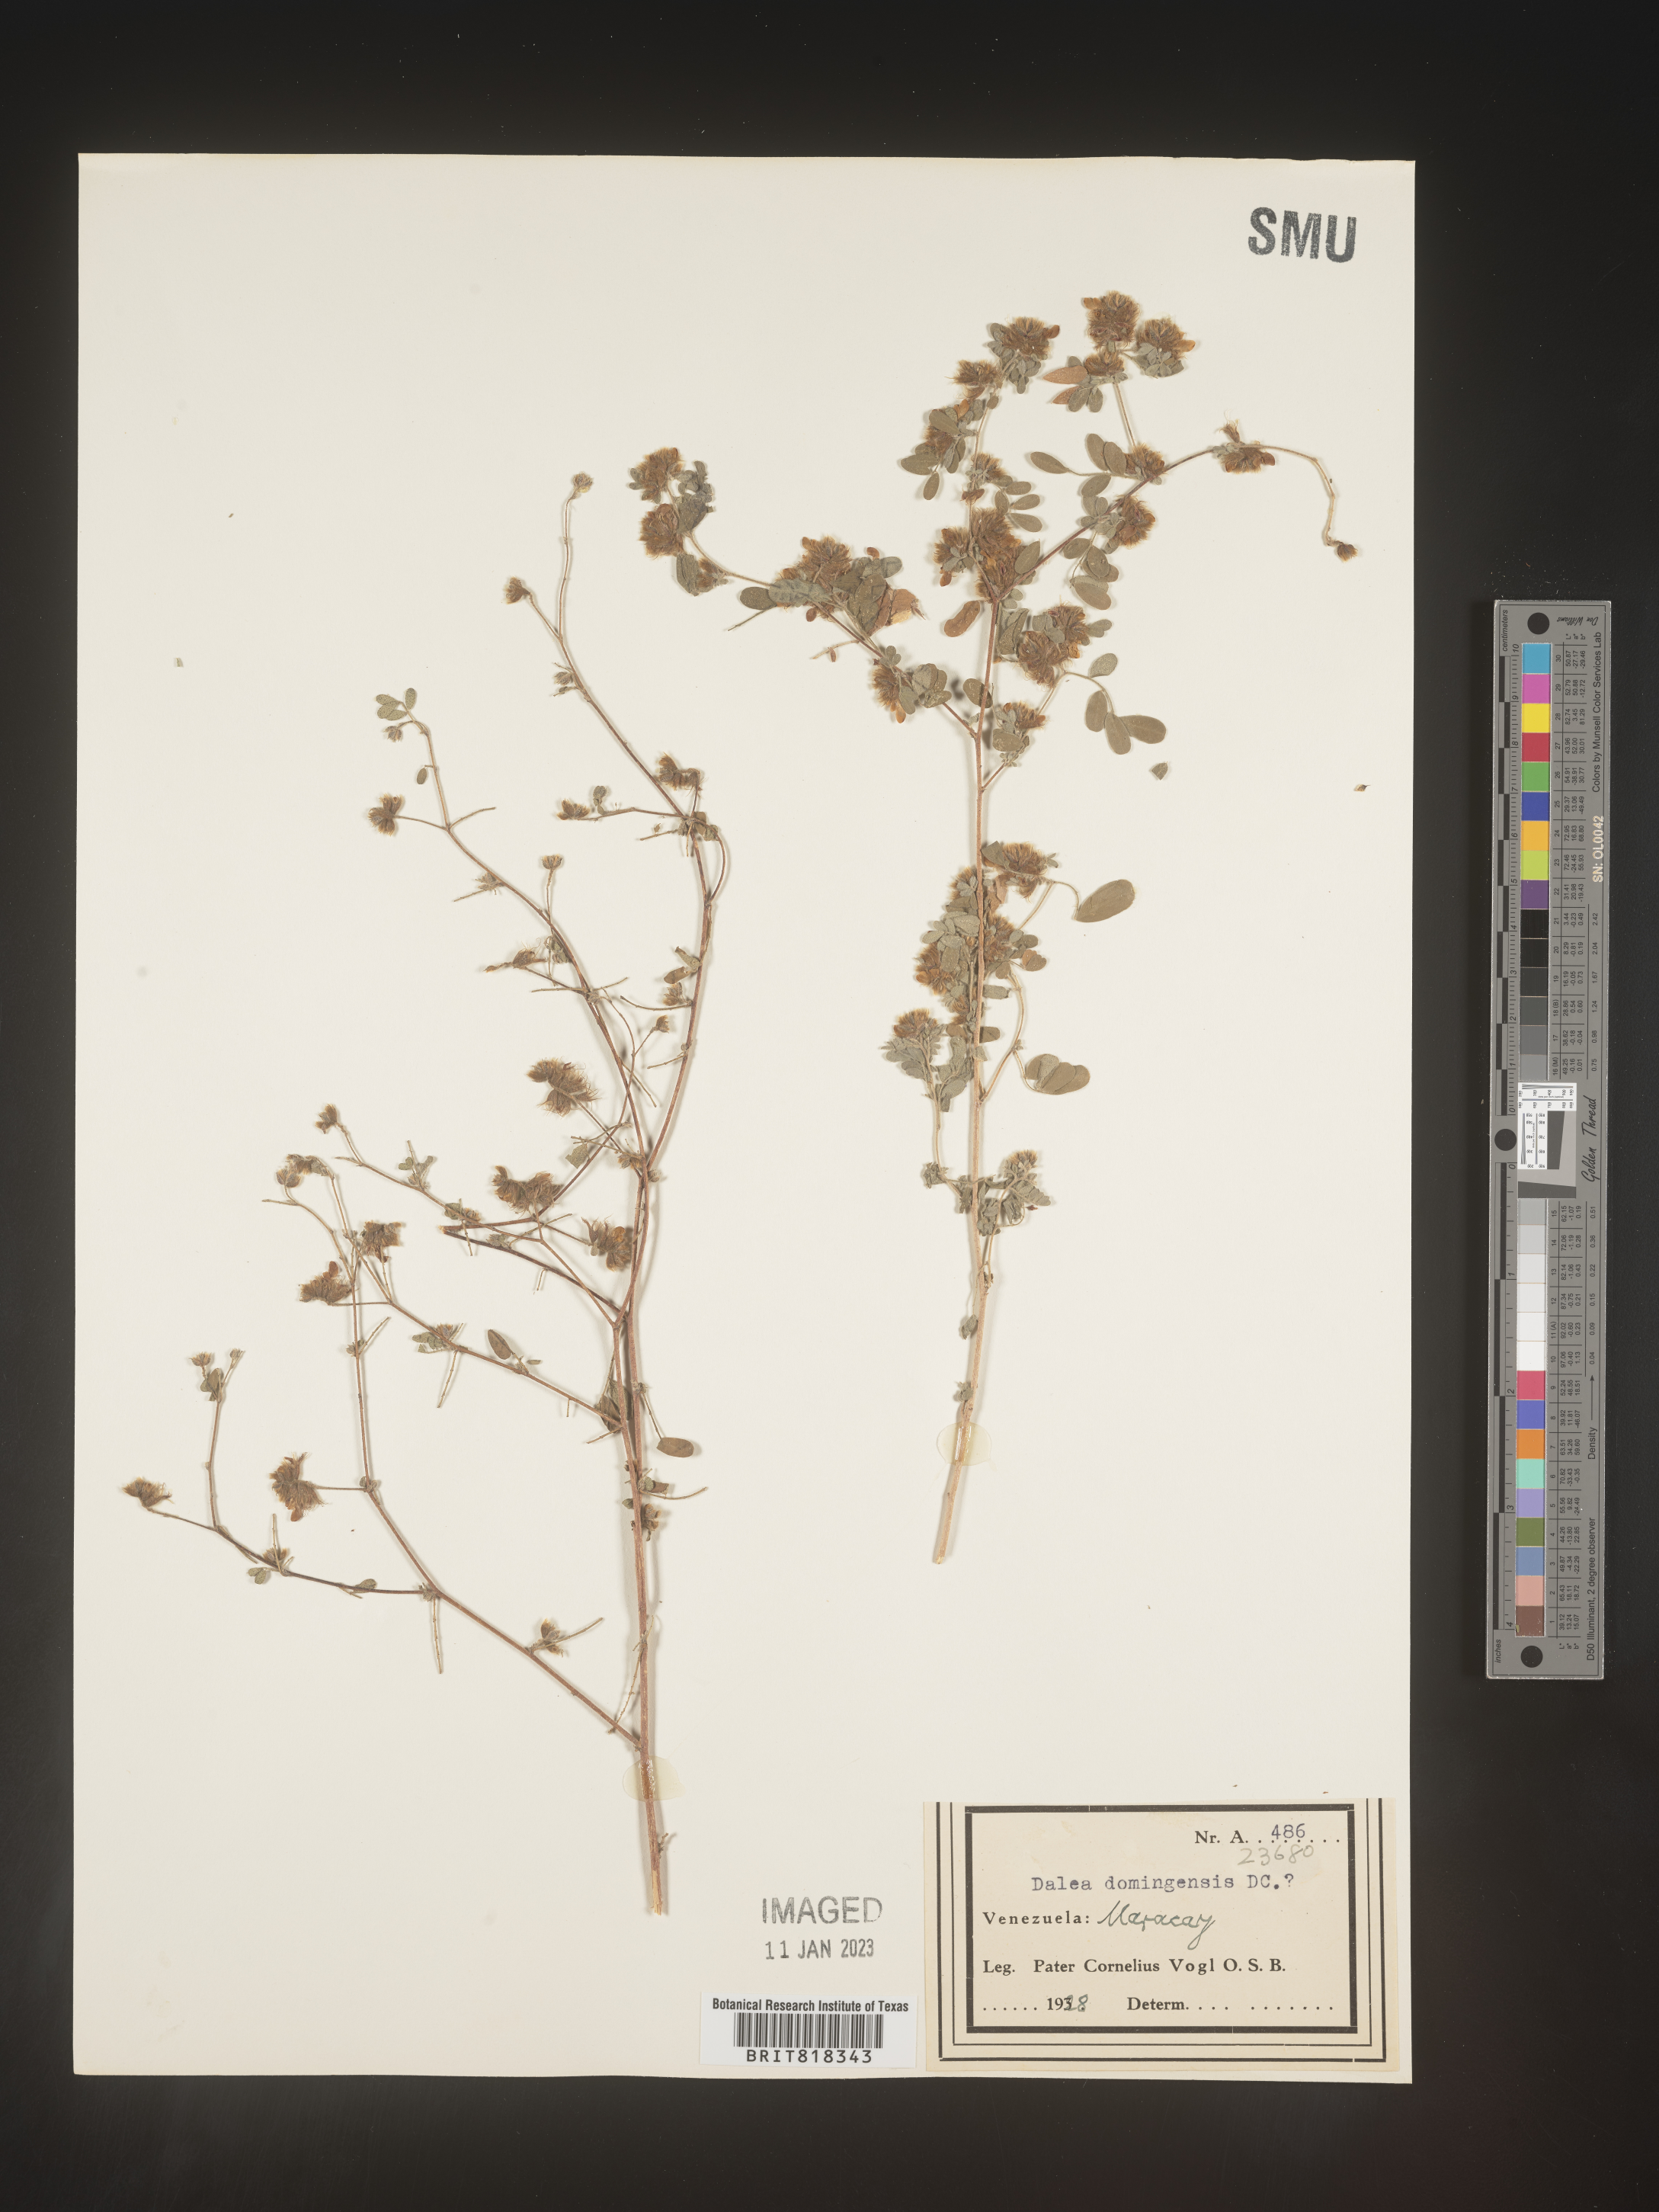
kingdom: Plantae
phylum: Tracheophyta
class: Magnoliopsida
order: Fabales
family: Fabaceae
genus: Dalea
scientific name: Dalea
